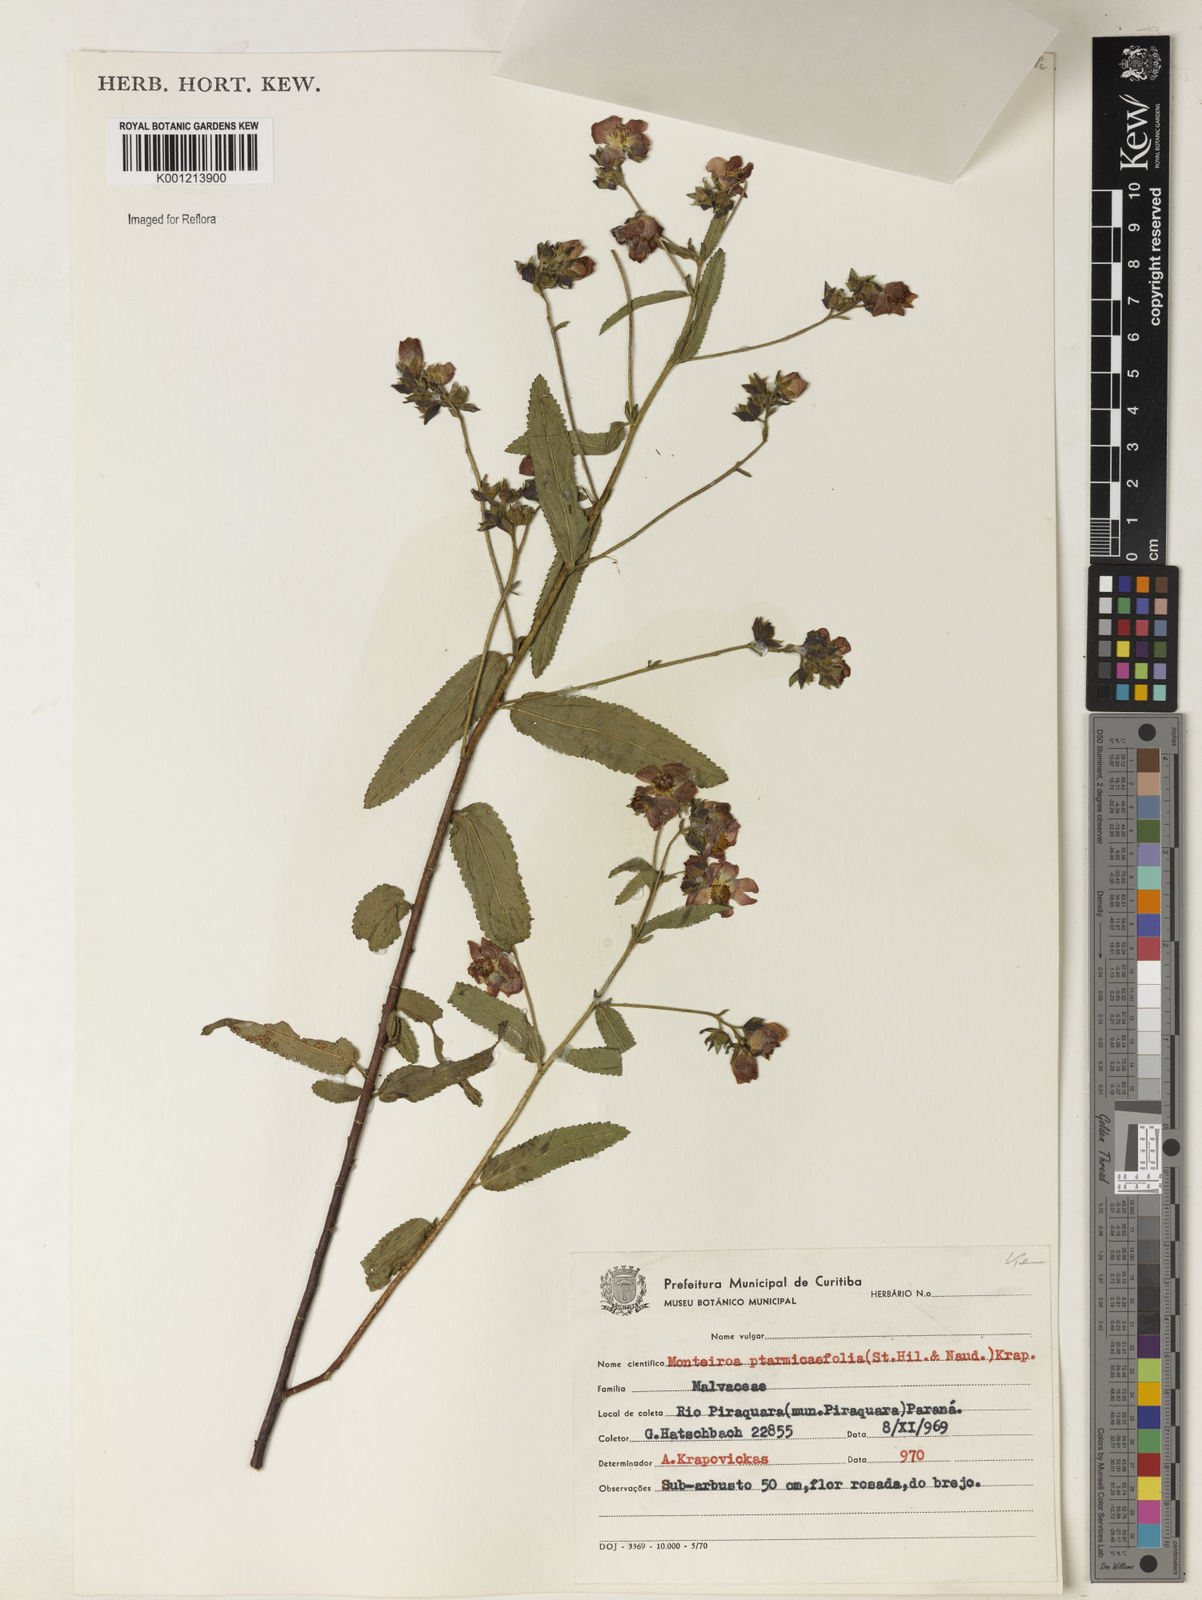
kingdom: Plantae
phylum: Tracheophyta
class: Magnoliopsida
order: Malvales
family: Malvaceae
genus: Monteiroa
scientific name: Monteiroa ptarmicifolia
